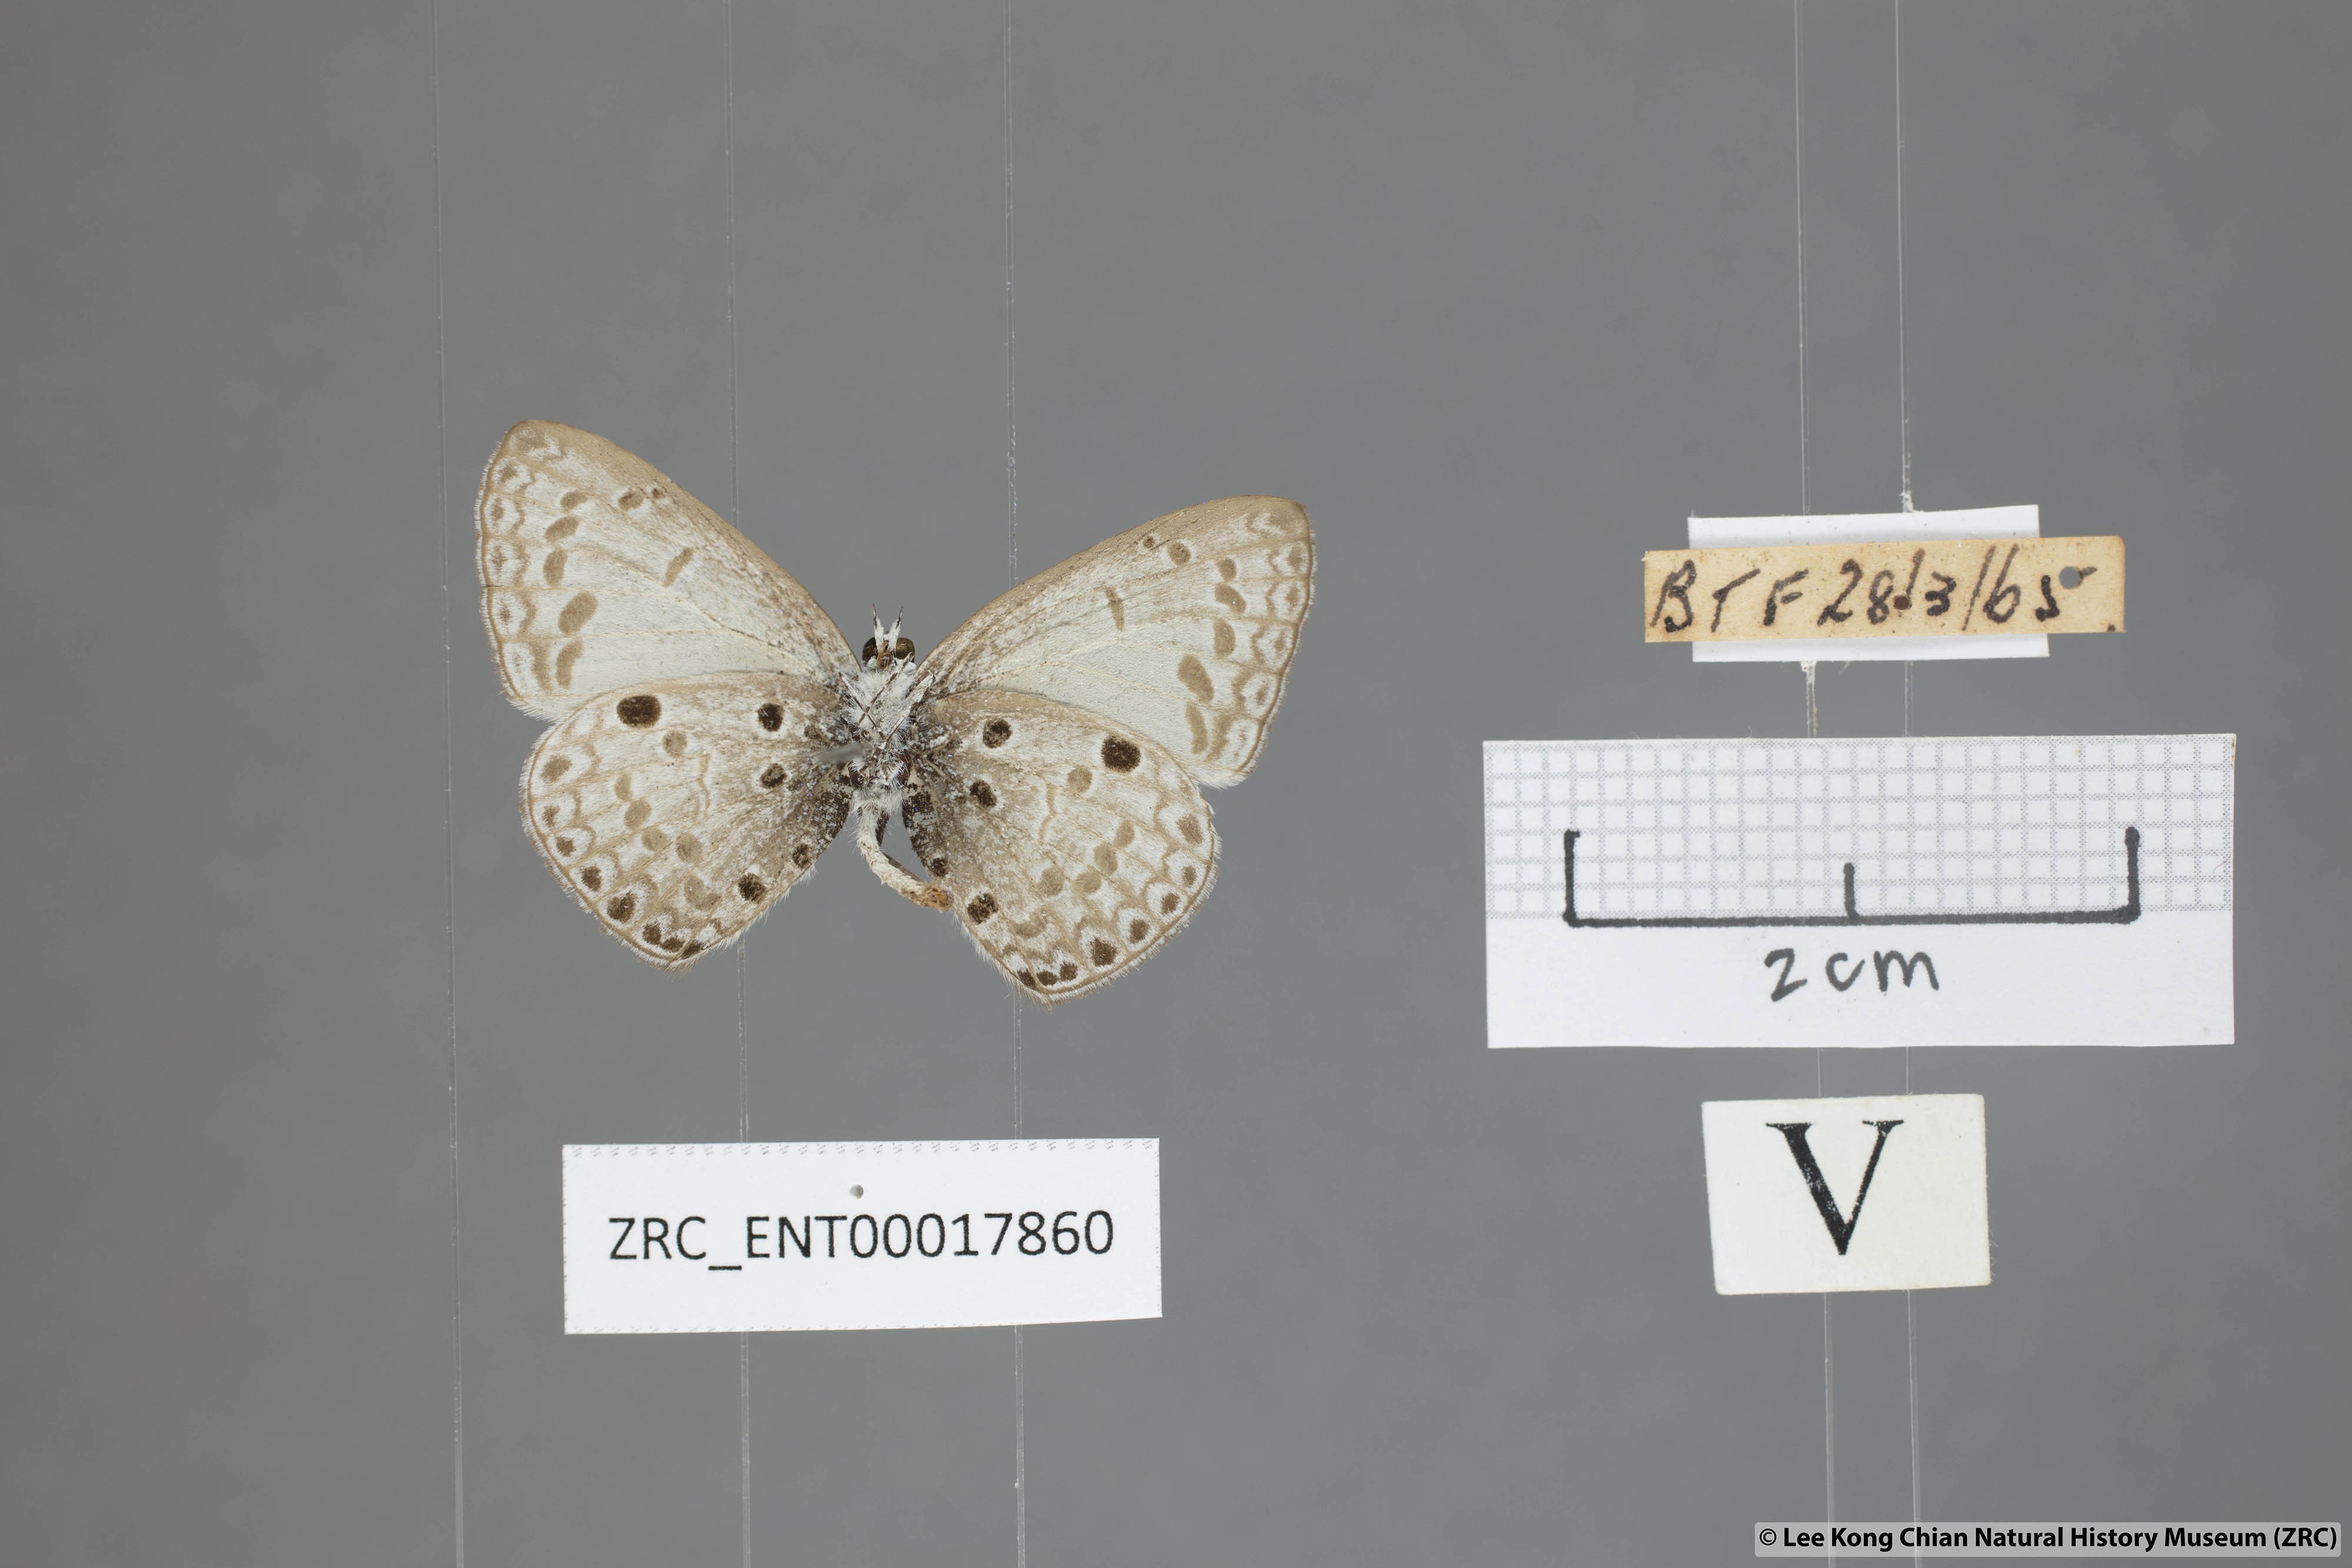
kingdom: Animalia
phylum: Arthropoda
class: Insecta
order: Lepidoptera
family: Lycaenidae
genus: Acytolepis
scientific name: Acytolepis puspa
